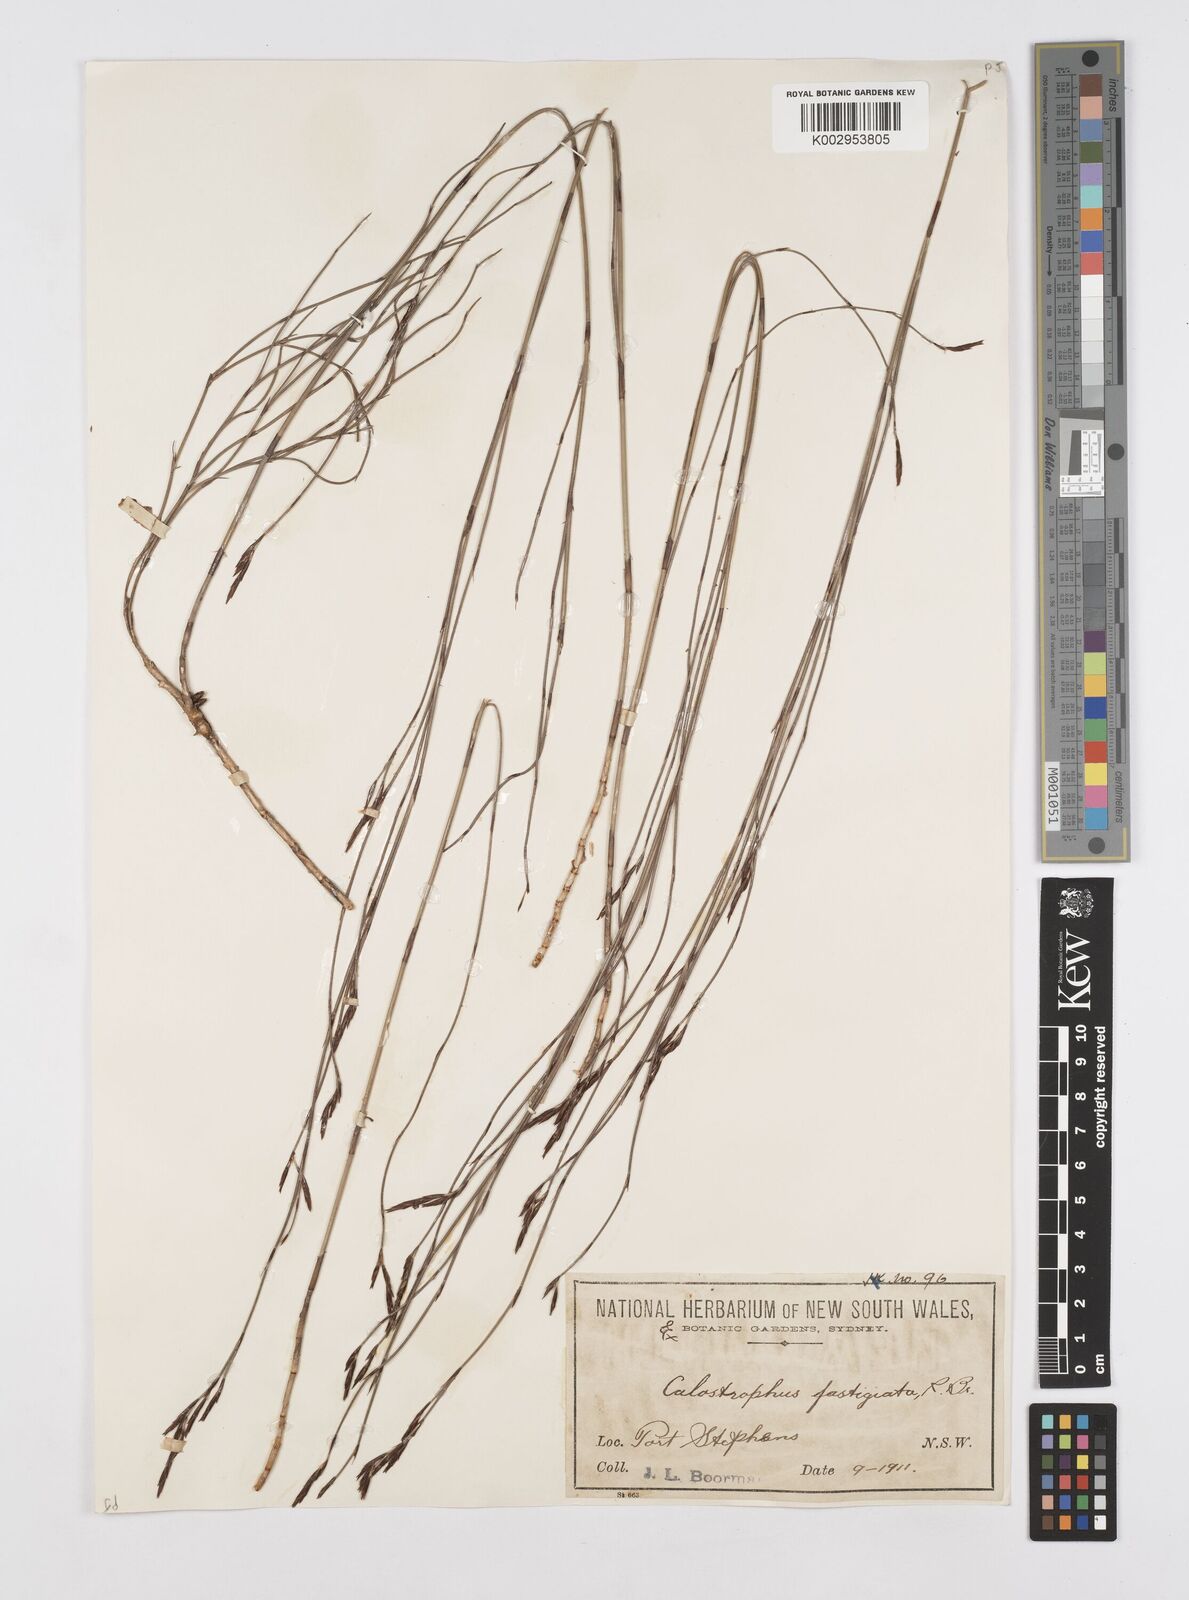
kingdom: Plantae
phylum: Tracheophyta
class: Liliopsida
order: Poales
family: Restionaceae
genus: Hypolaena
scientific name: Hypolaena fastigiata
